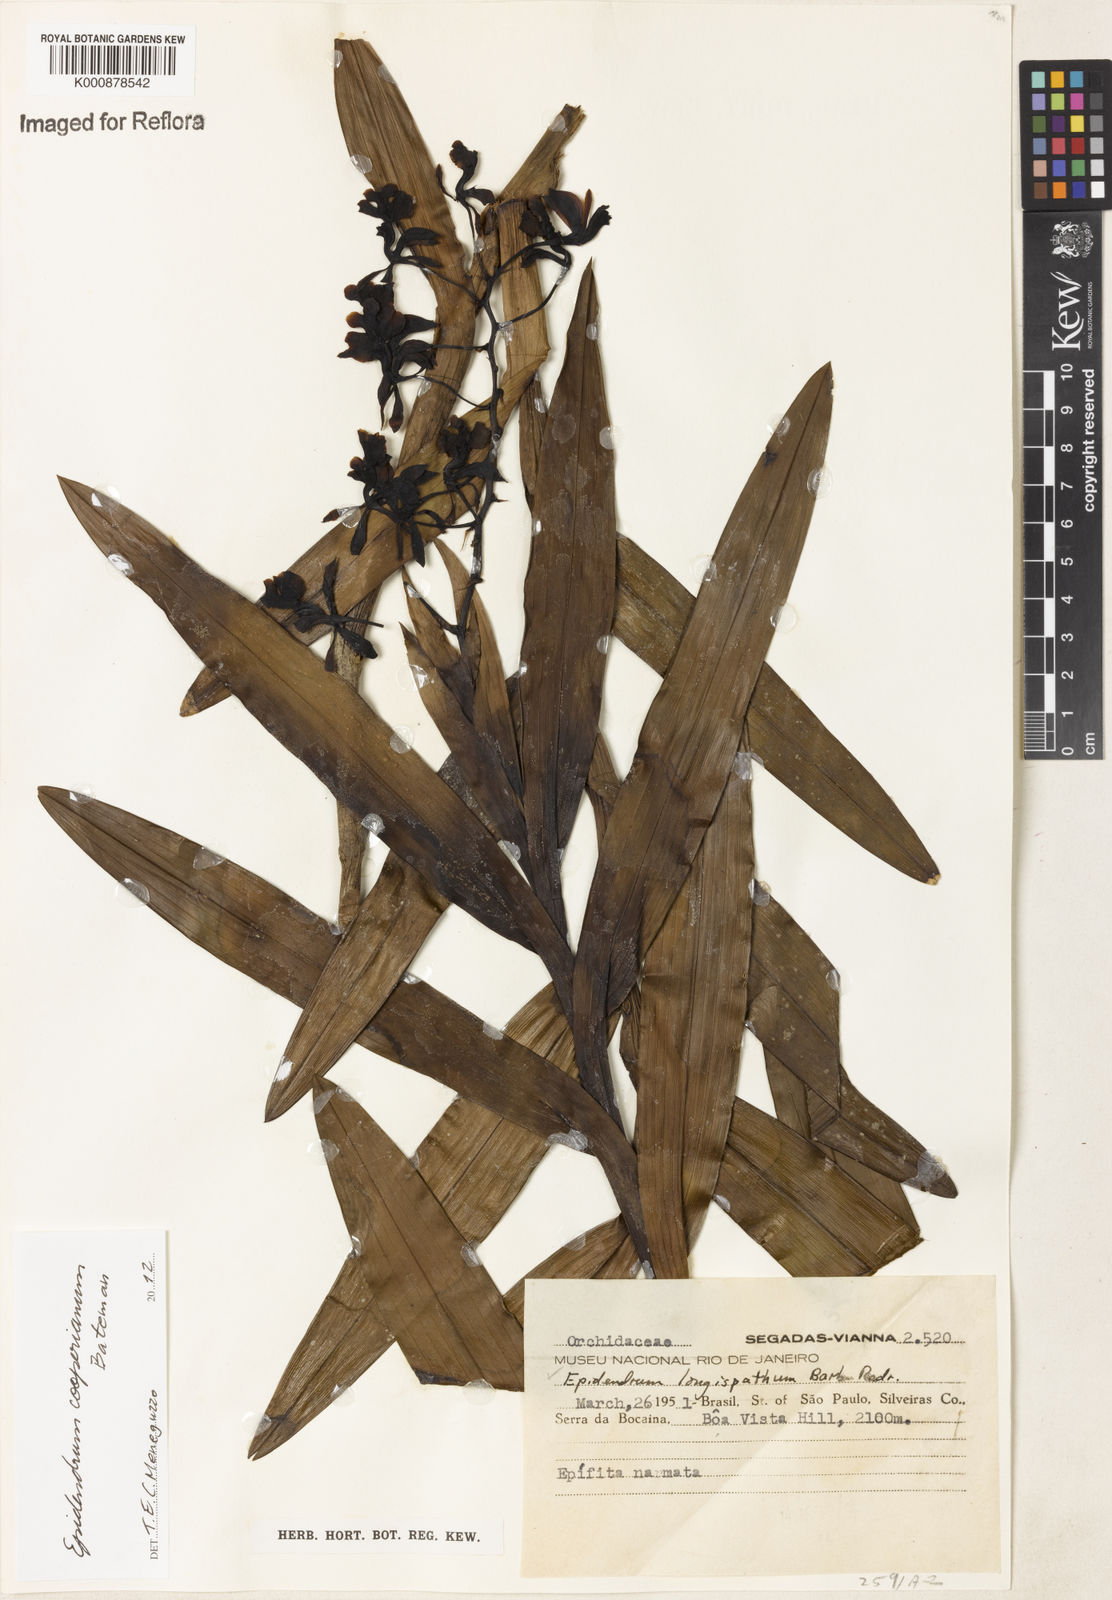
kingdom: Plantae
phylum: Tracheophyta
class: Liliopsida
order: Asparagales
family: Orchidaceae
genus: Epidendrum
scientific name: Epidendrum cooperianum
